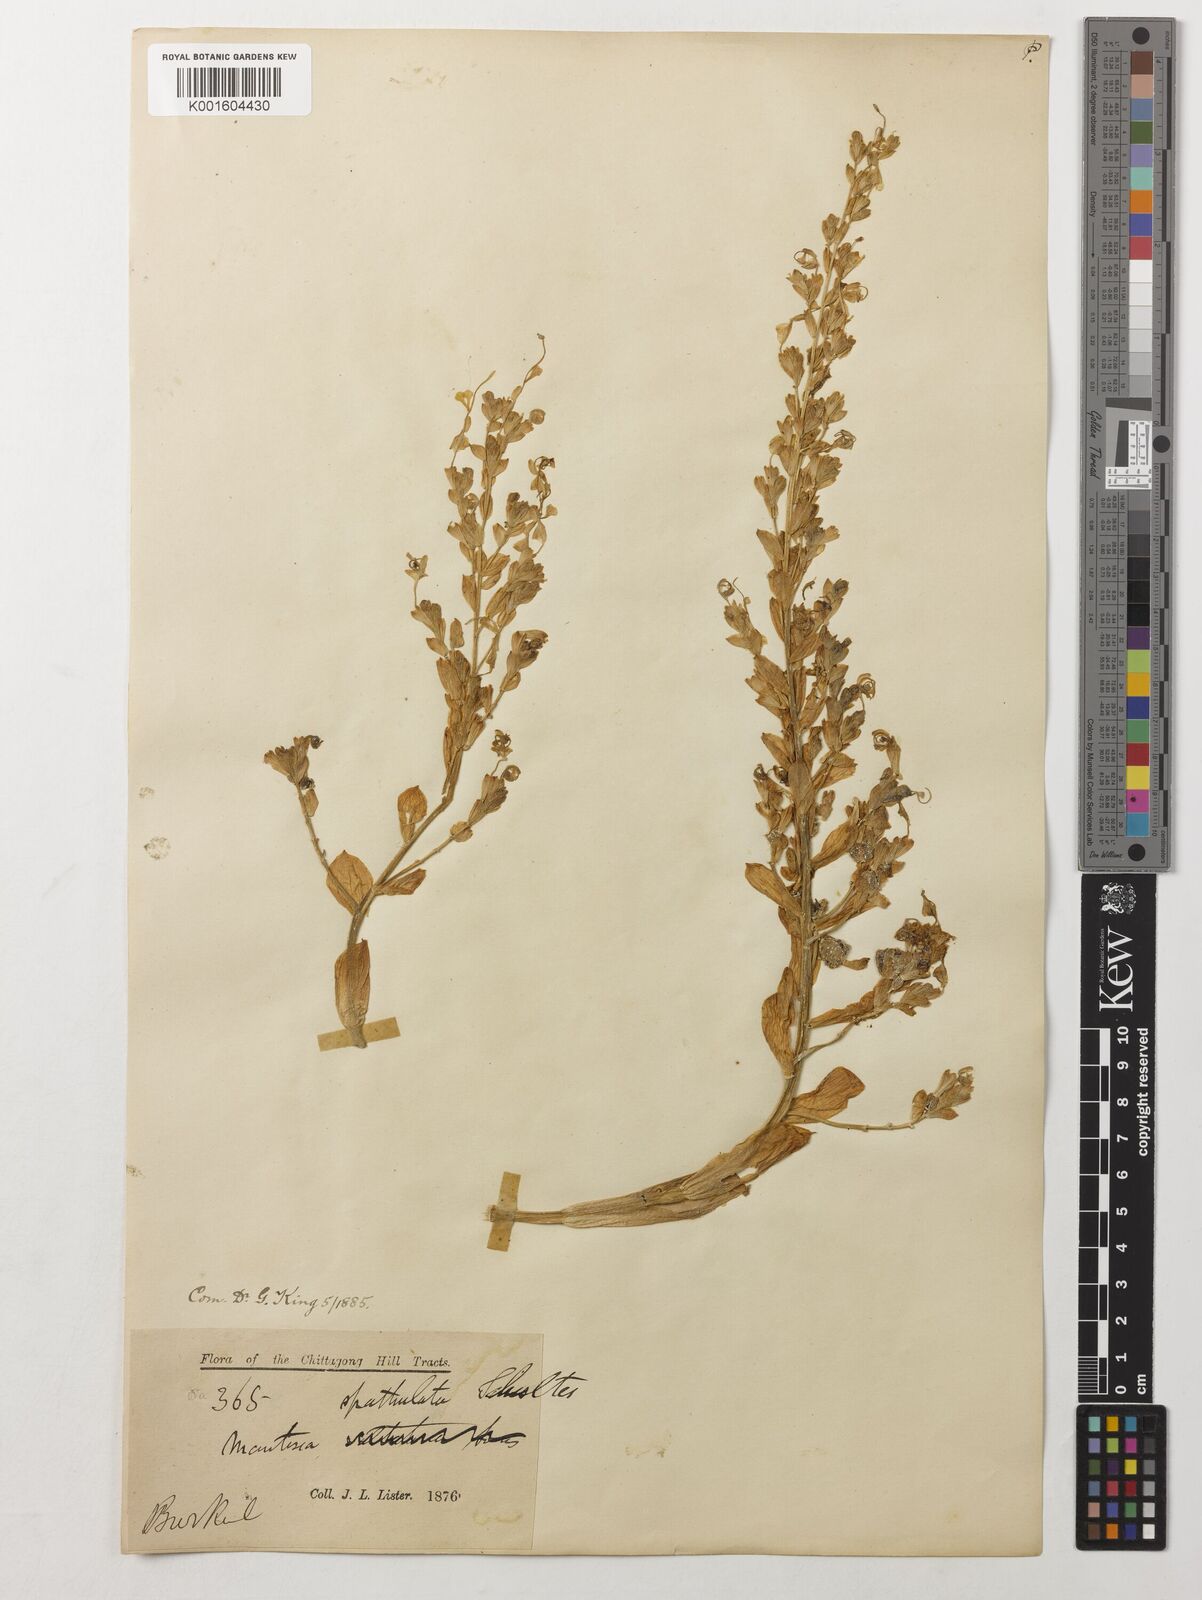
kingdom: Plantae
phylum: Tracheophyta
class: Liliopsida
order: Zingiberales
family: Zingiberaceae
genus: Globba
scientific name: Globba spathulata
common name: Dancing girl flower
